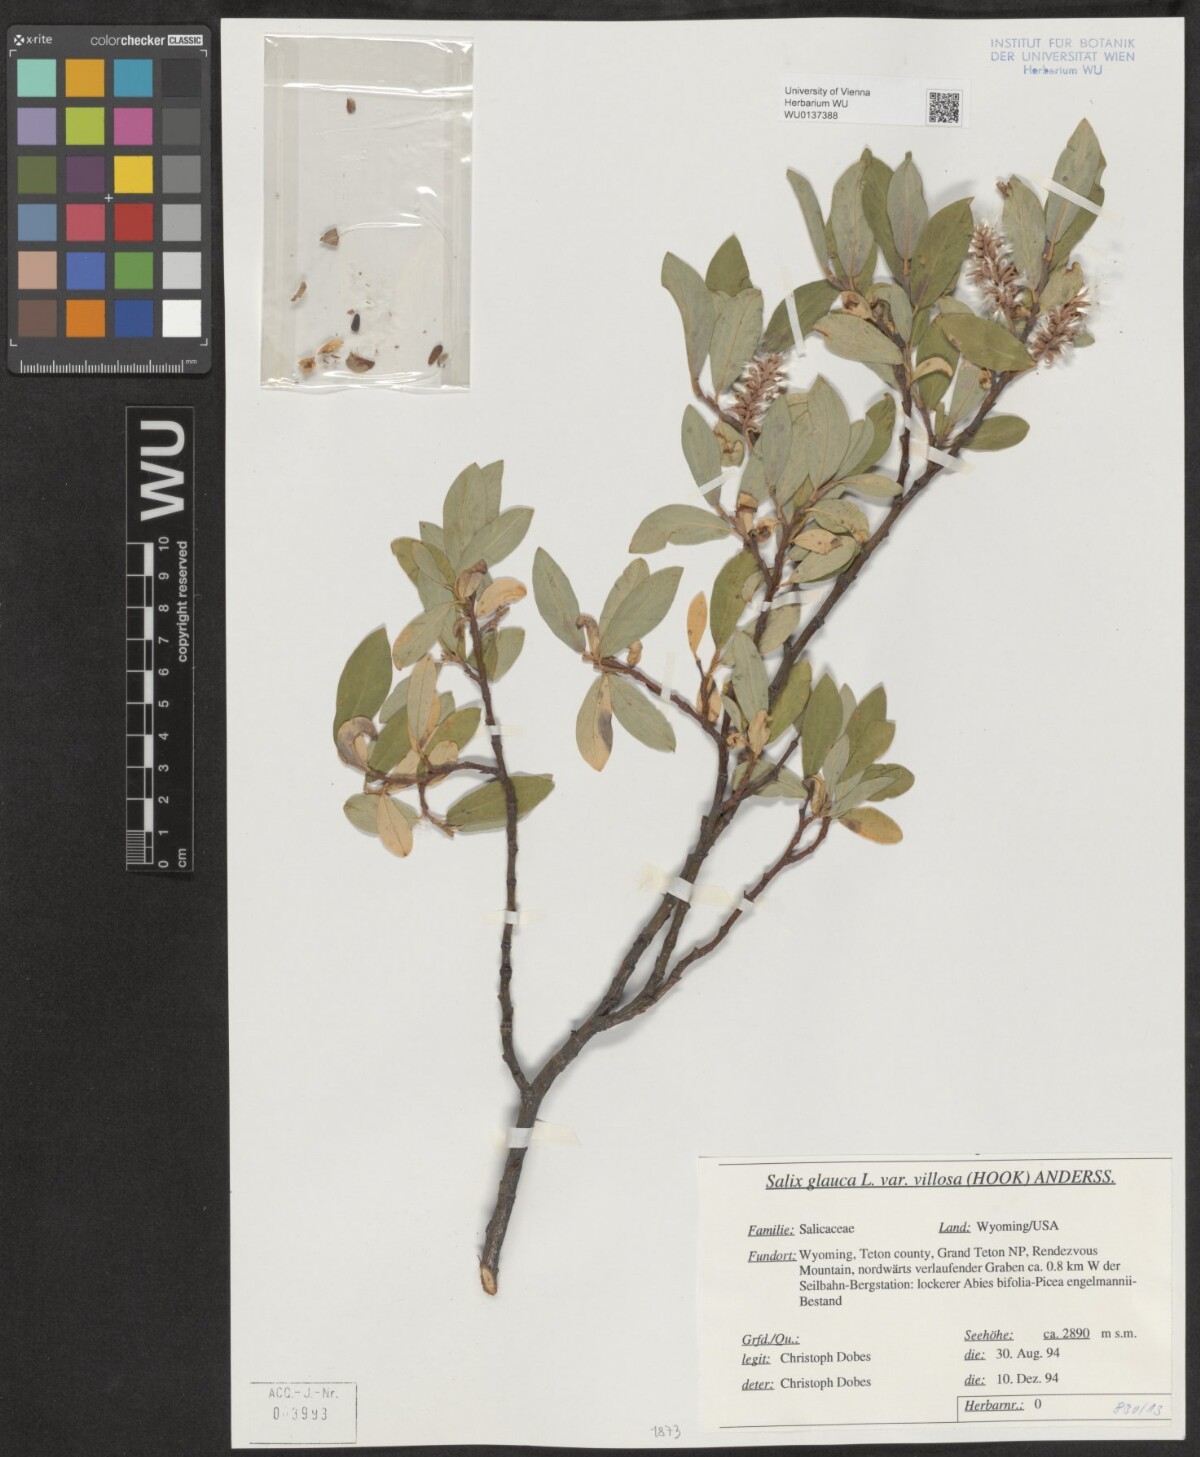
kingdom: Plantae
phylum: Tracheophyta
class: Magnoliopsida
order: Malpighiales
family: Salicaceae
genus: Salix
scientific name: Salix glauca
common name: Glaucous willow
